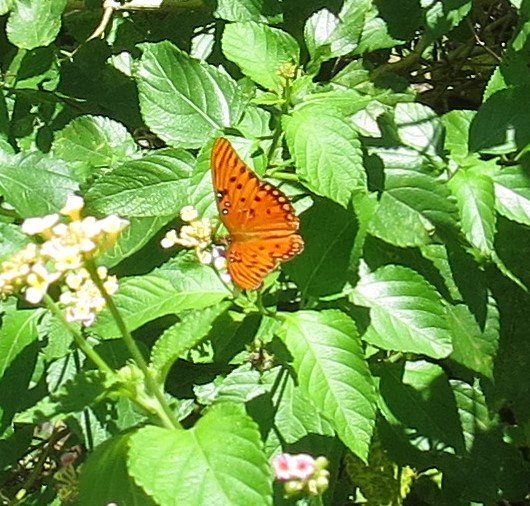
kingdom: Animalia
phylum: Arthropoda
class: Insecta
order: Lepidoptera
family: Nymphalidae
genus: Dione
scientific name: Dione vanillae
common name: Gulf Fritillary
